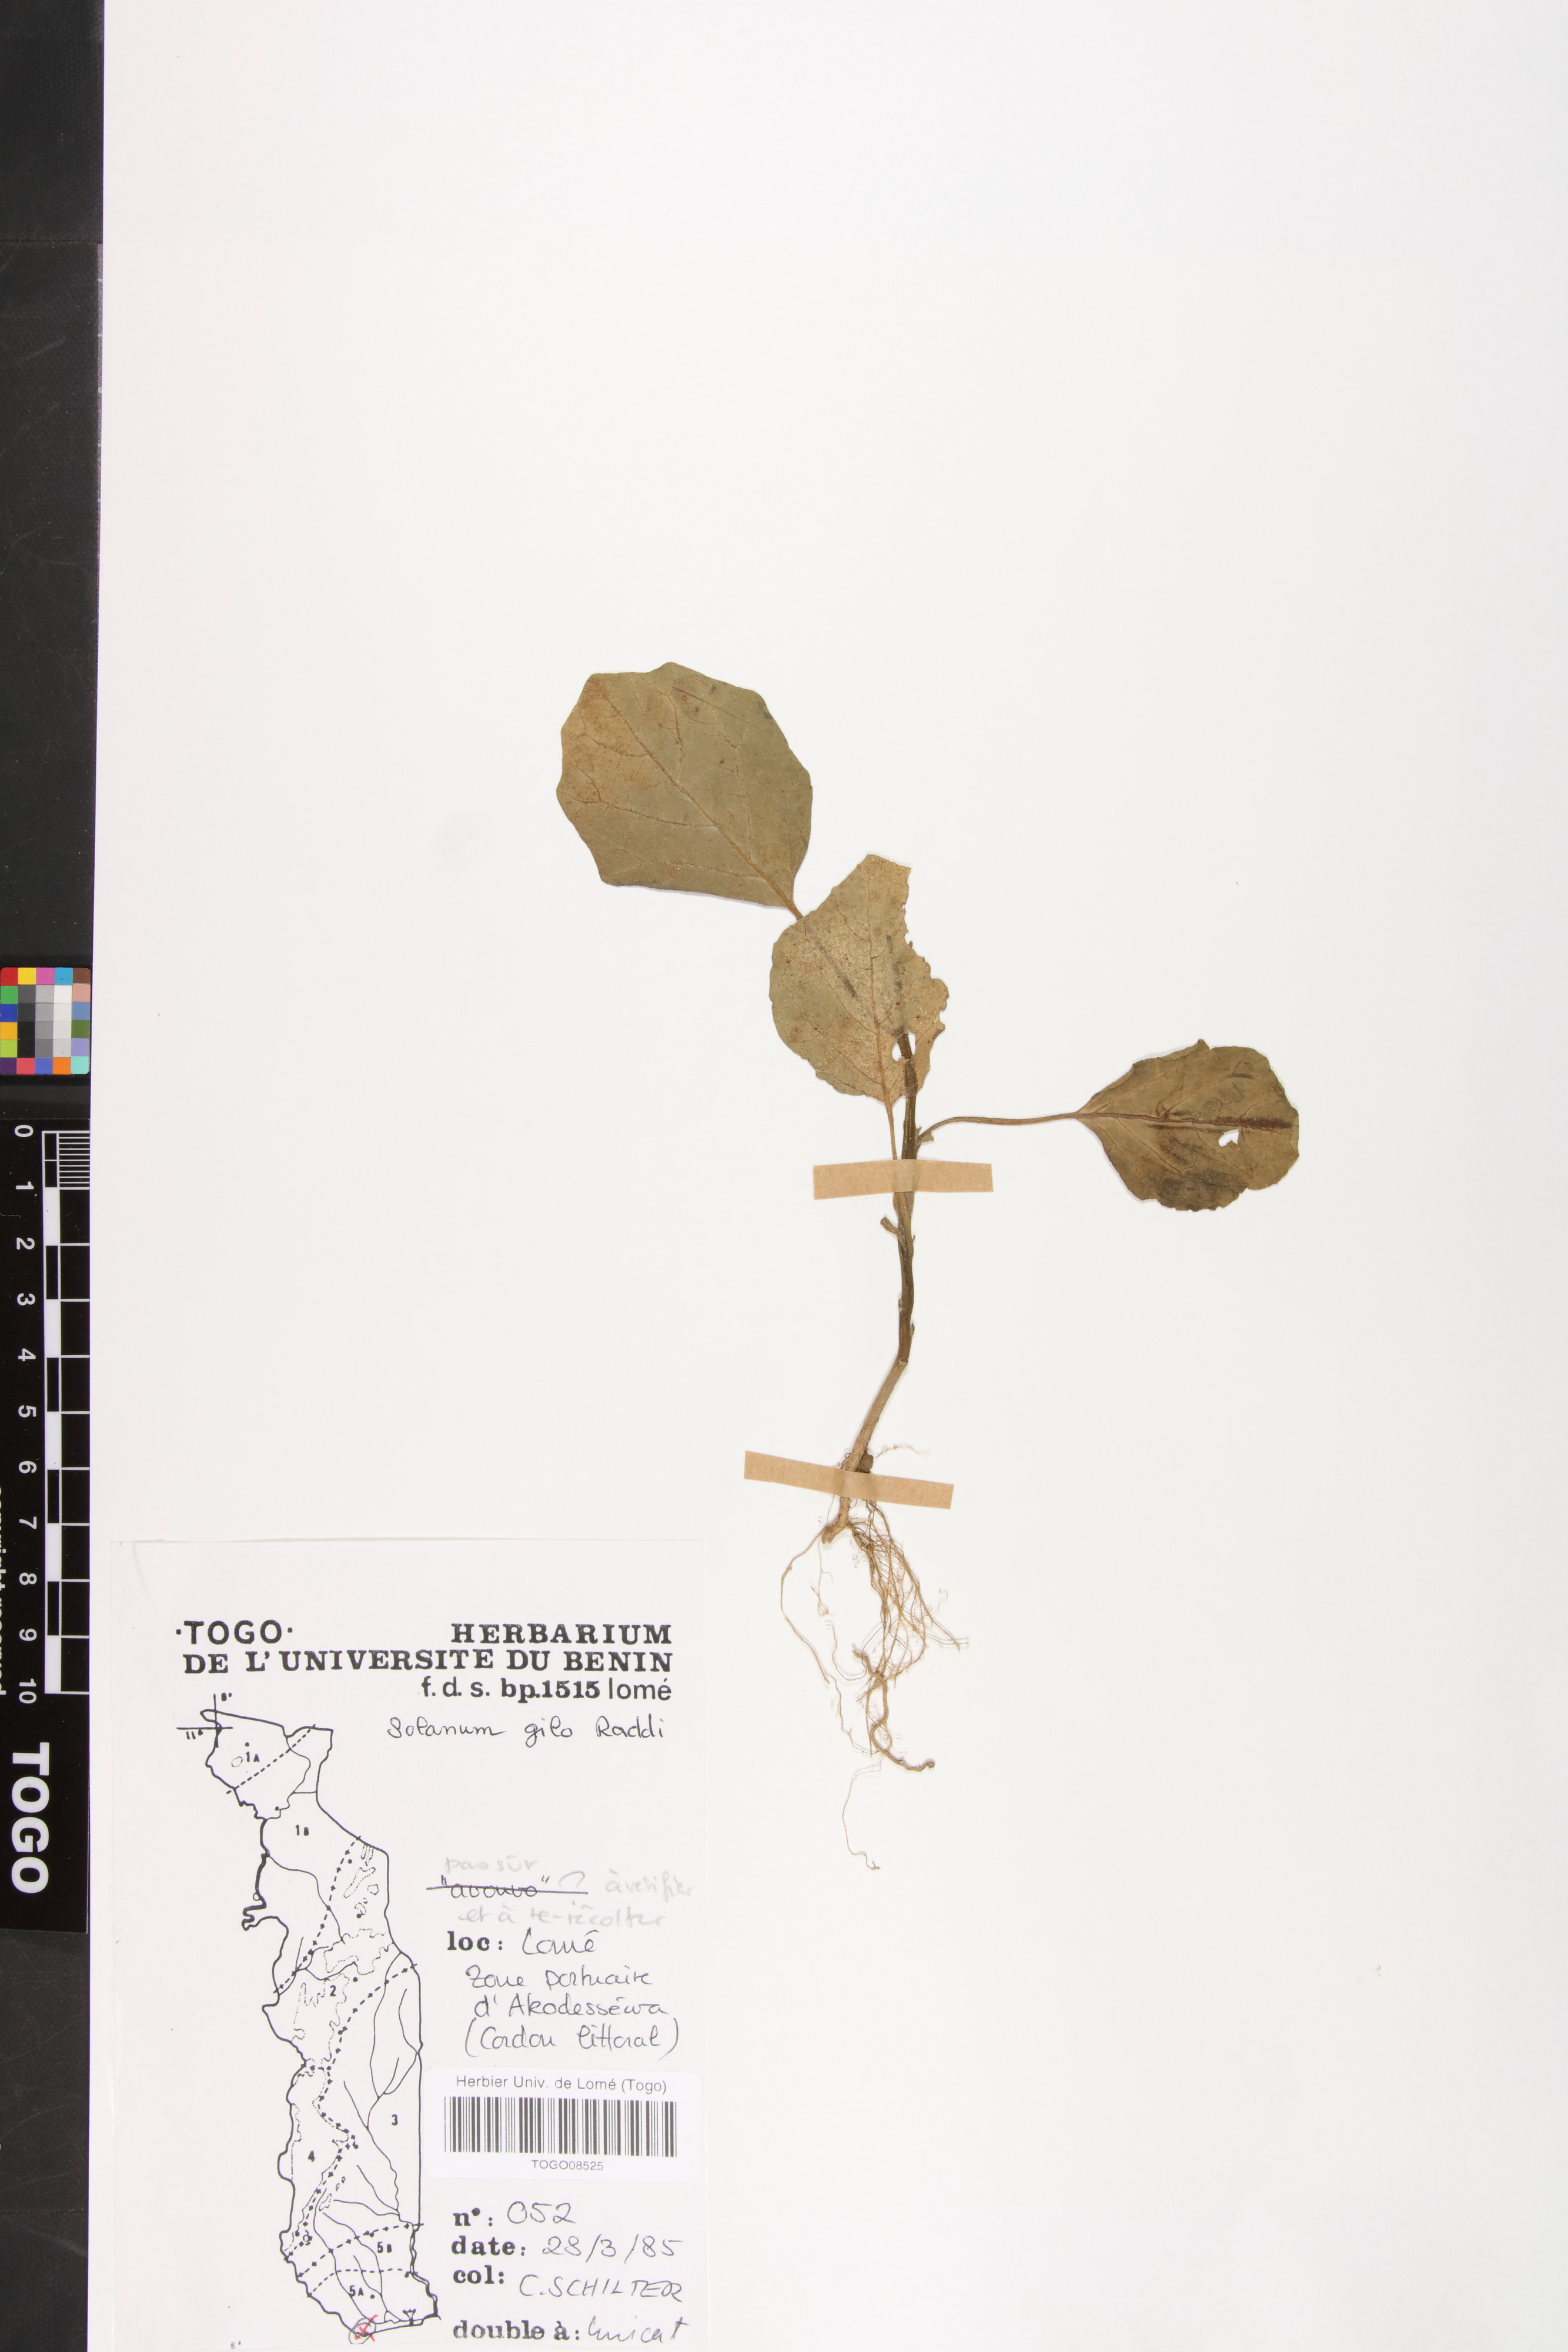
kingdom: Plantae
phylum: Tracheophyta
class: Magnoliopsida
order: Solanales
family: Solanaceae
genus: Solanum
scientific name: Solanum aethiopicum
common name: Gilo
